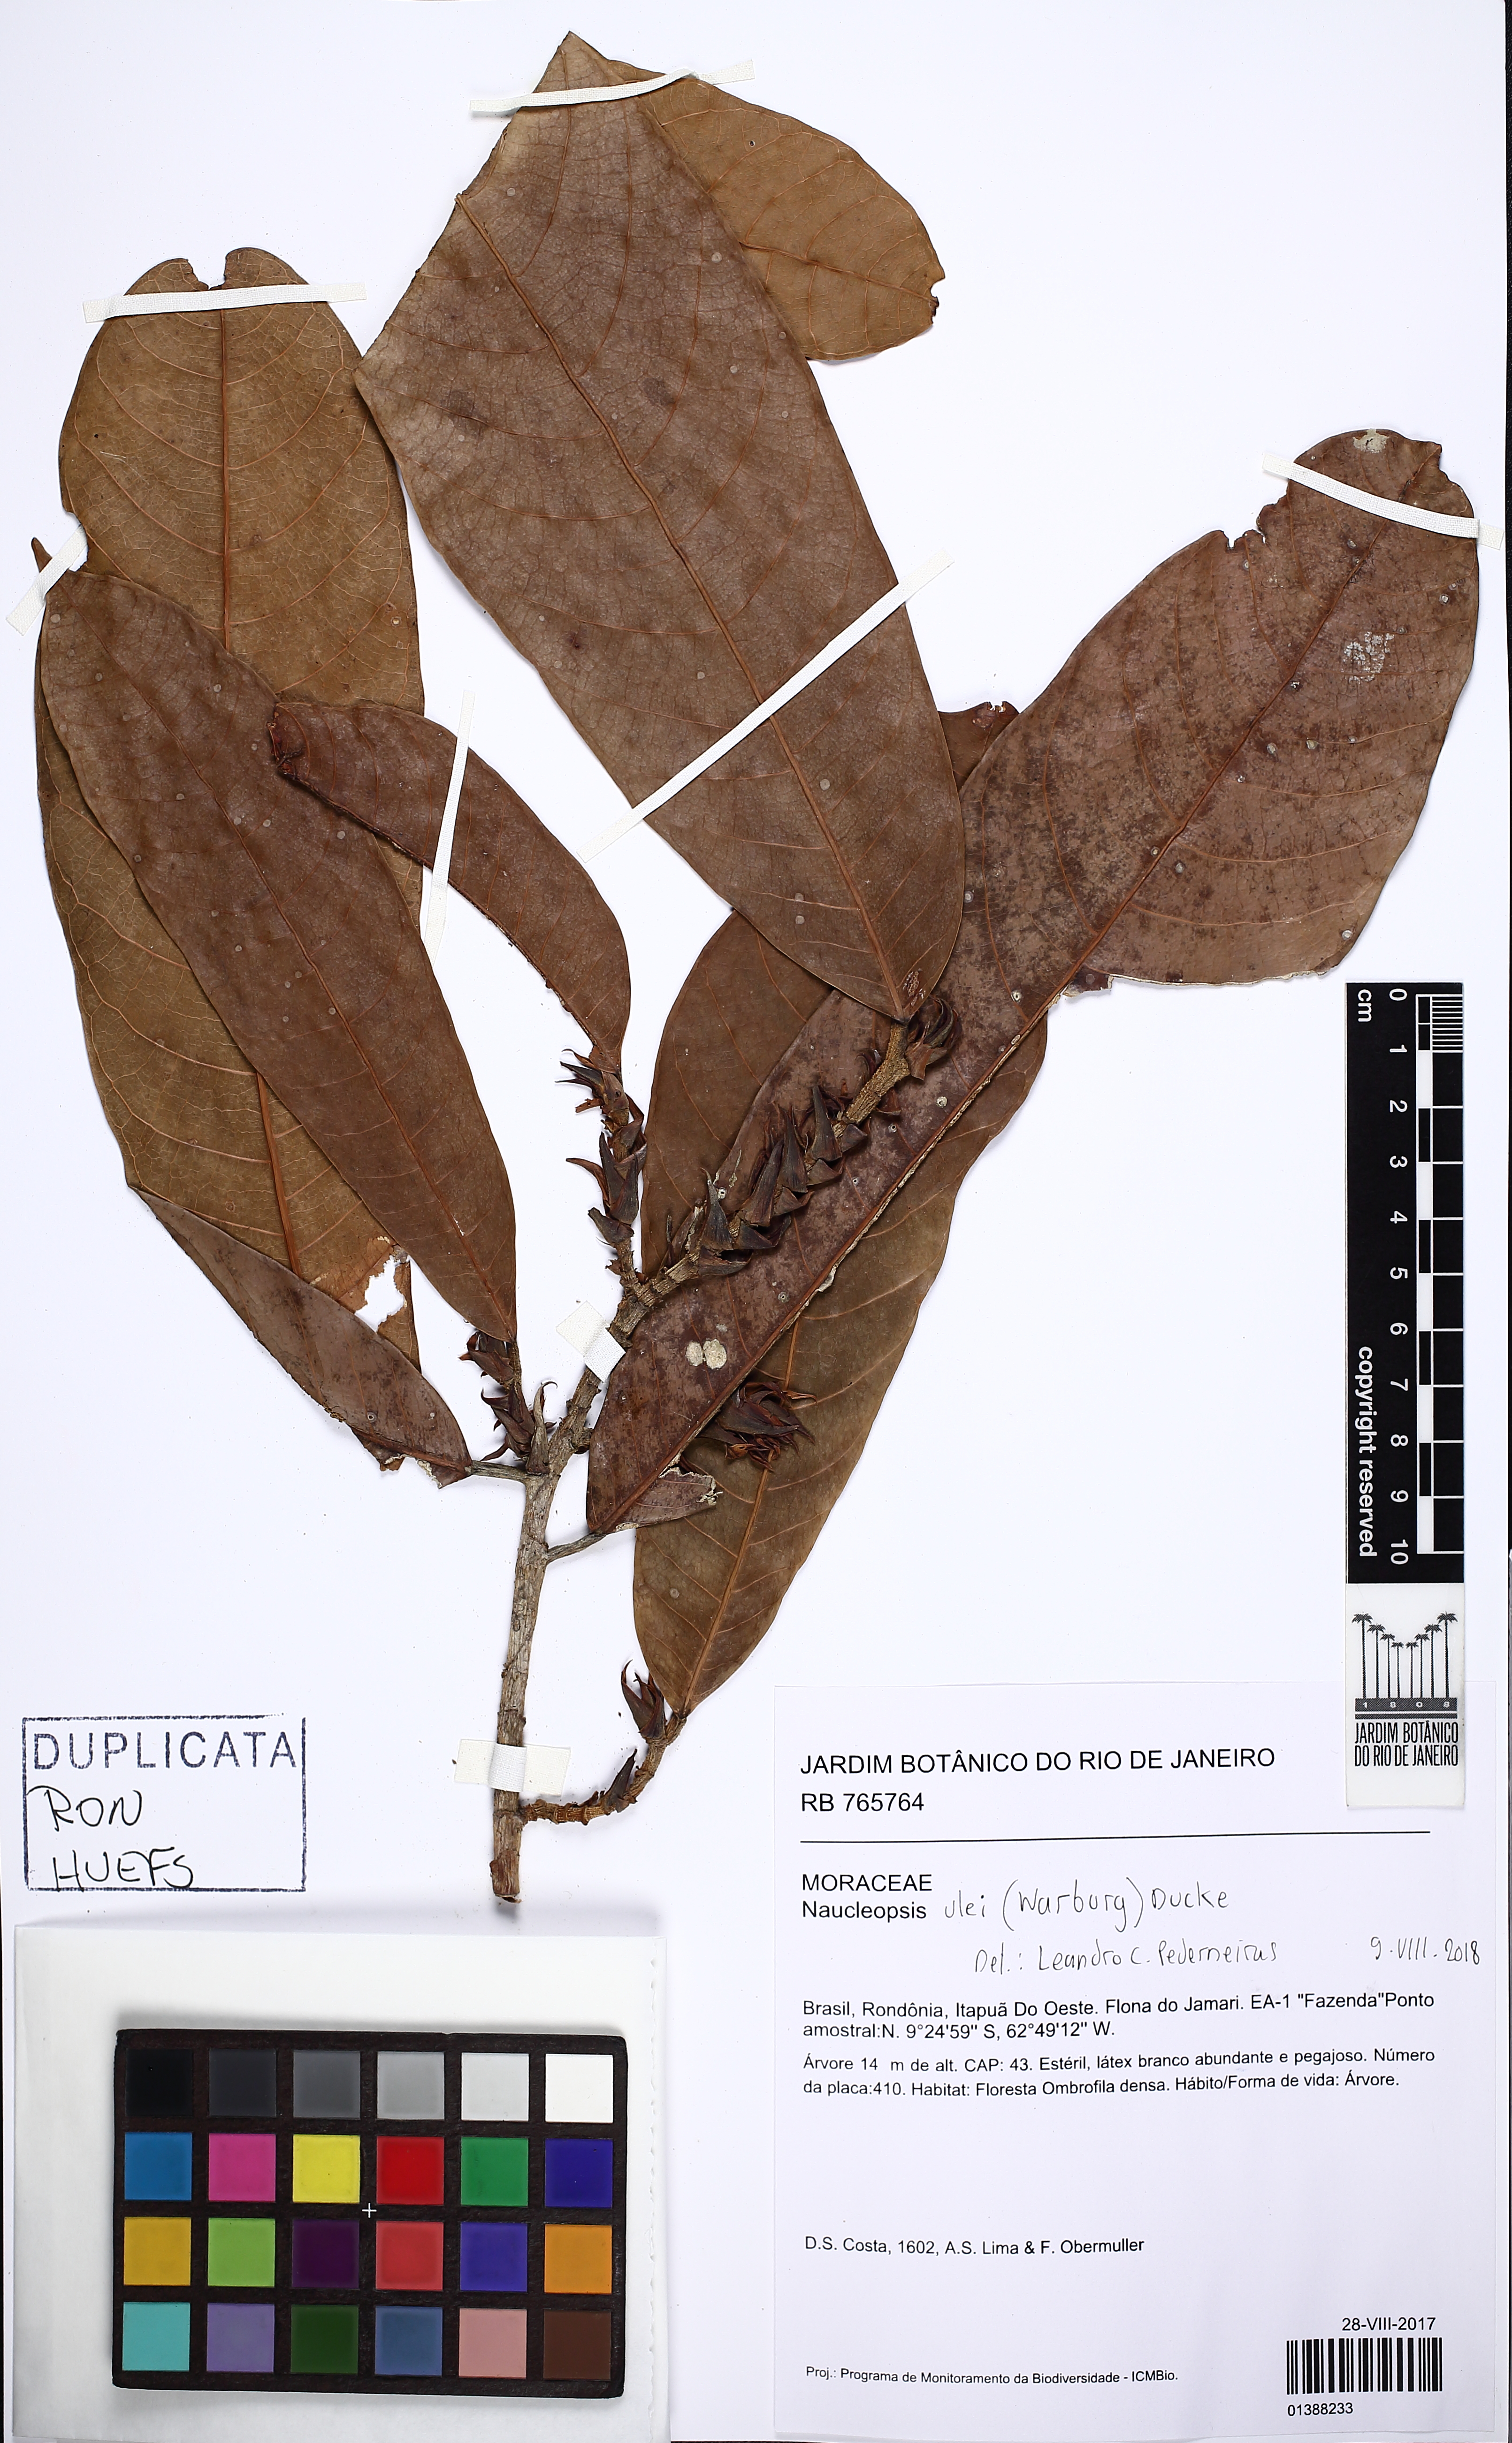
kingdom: Plantae
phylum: Tracheophyta
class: Magnoliopsida
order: Rosales
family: Moraceae
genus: Naucleopsis
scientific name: Naucleopsis ulei
